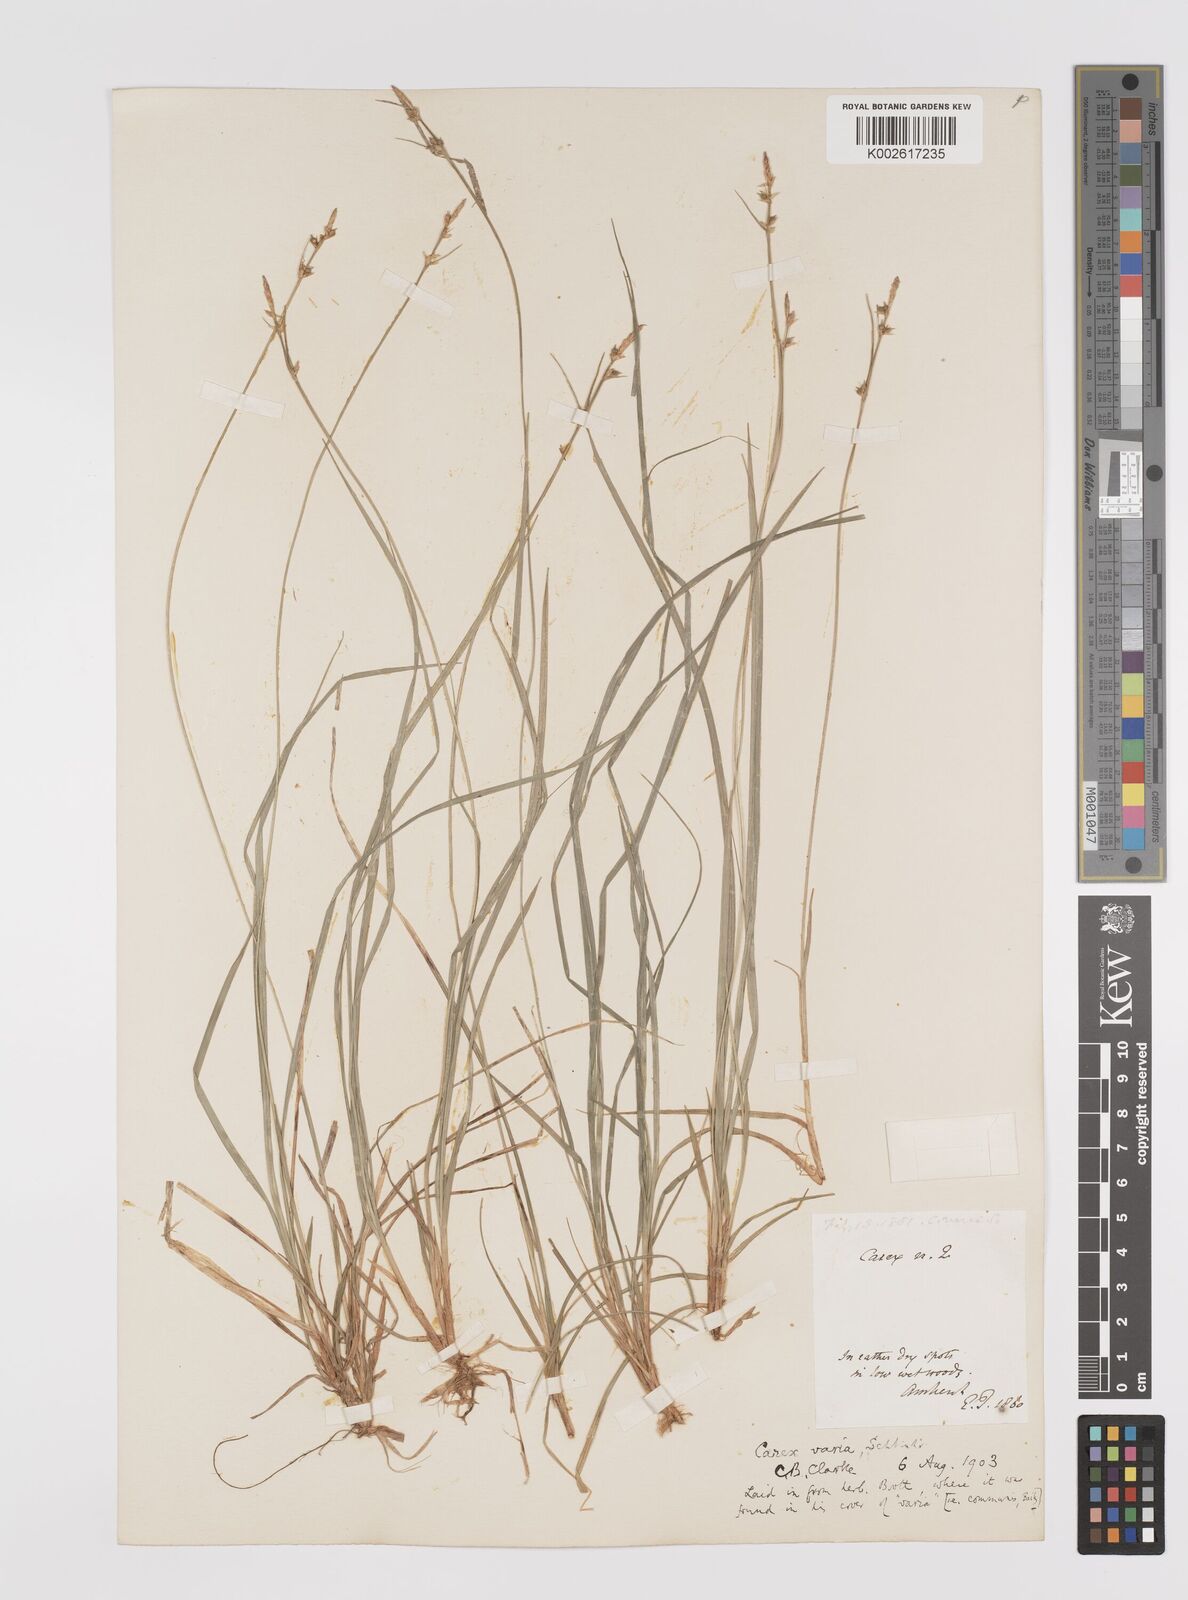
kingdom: Plantae
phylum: Tracheophyta
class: Liliopsida
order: Poales
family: Cyperaceae
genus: Carex
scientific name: Carex albicans
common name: Bellow-beaked sedge
